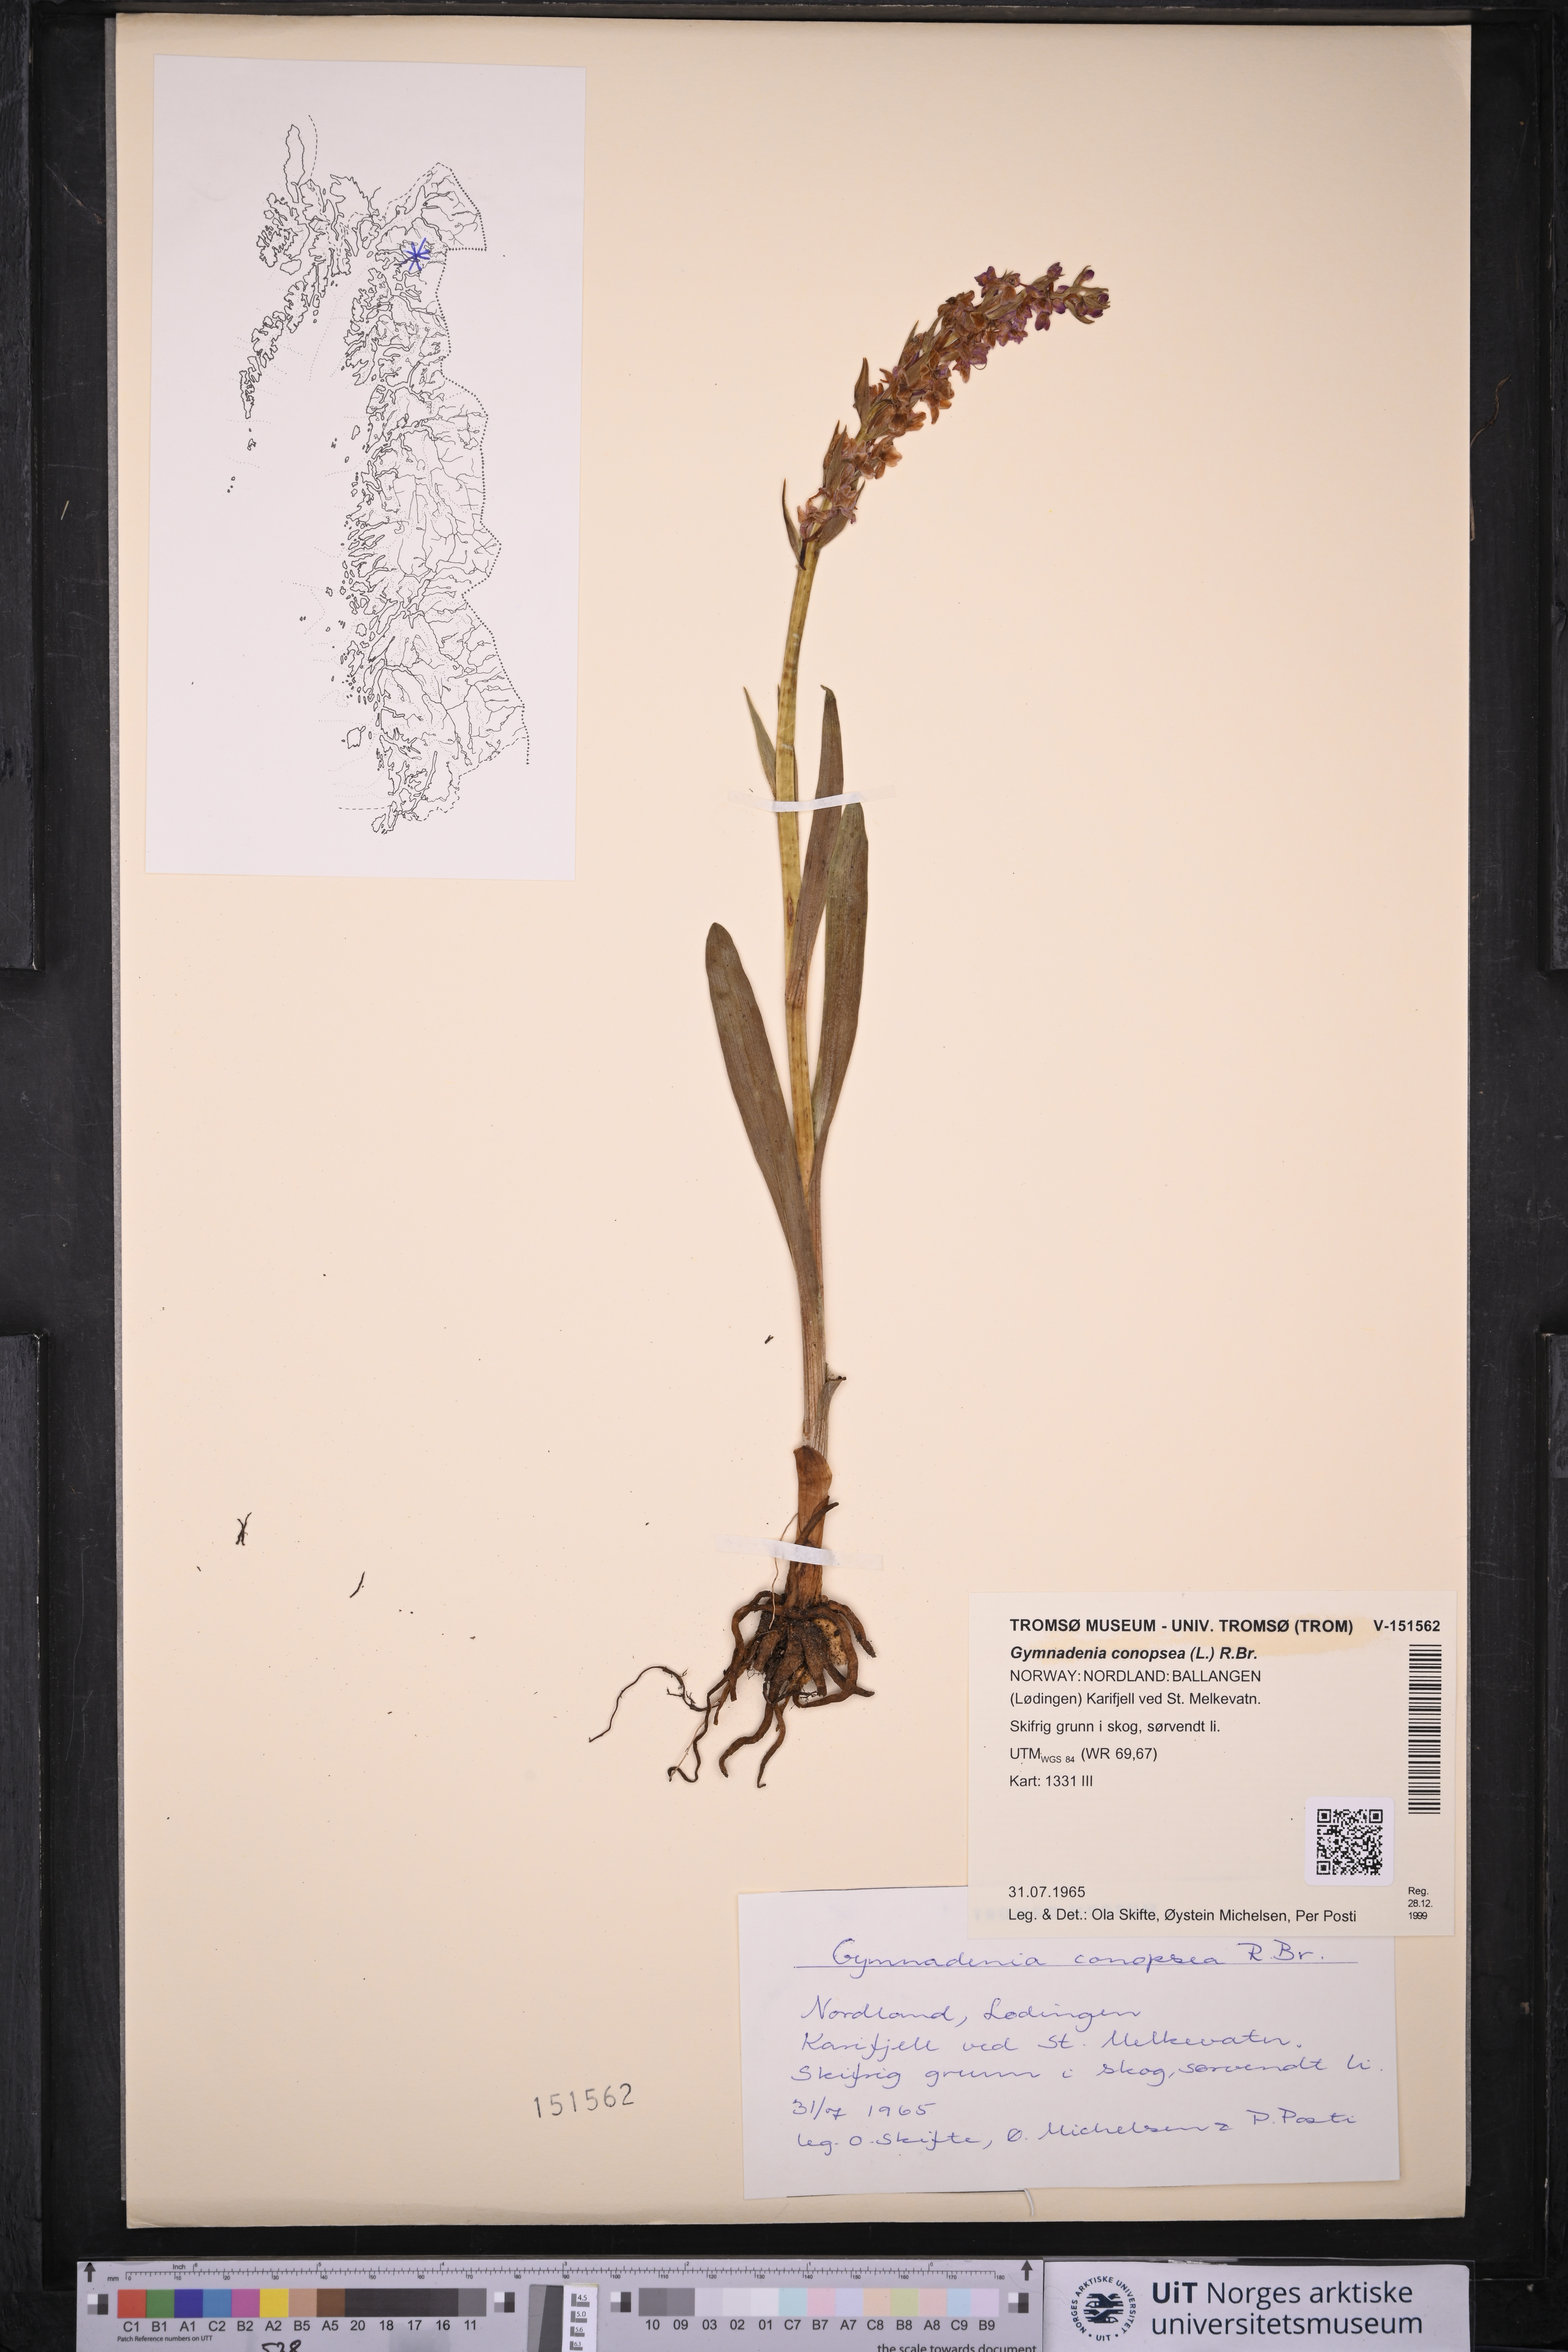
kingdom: Plantae
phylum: Tracheophyta
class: Liliopsida
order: Asparagales
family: Orchidaceae
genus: Gymnadenia
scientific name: Gymnadenia conopsea
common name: Fragrant orchid
